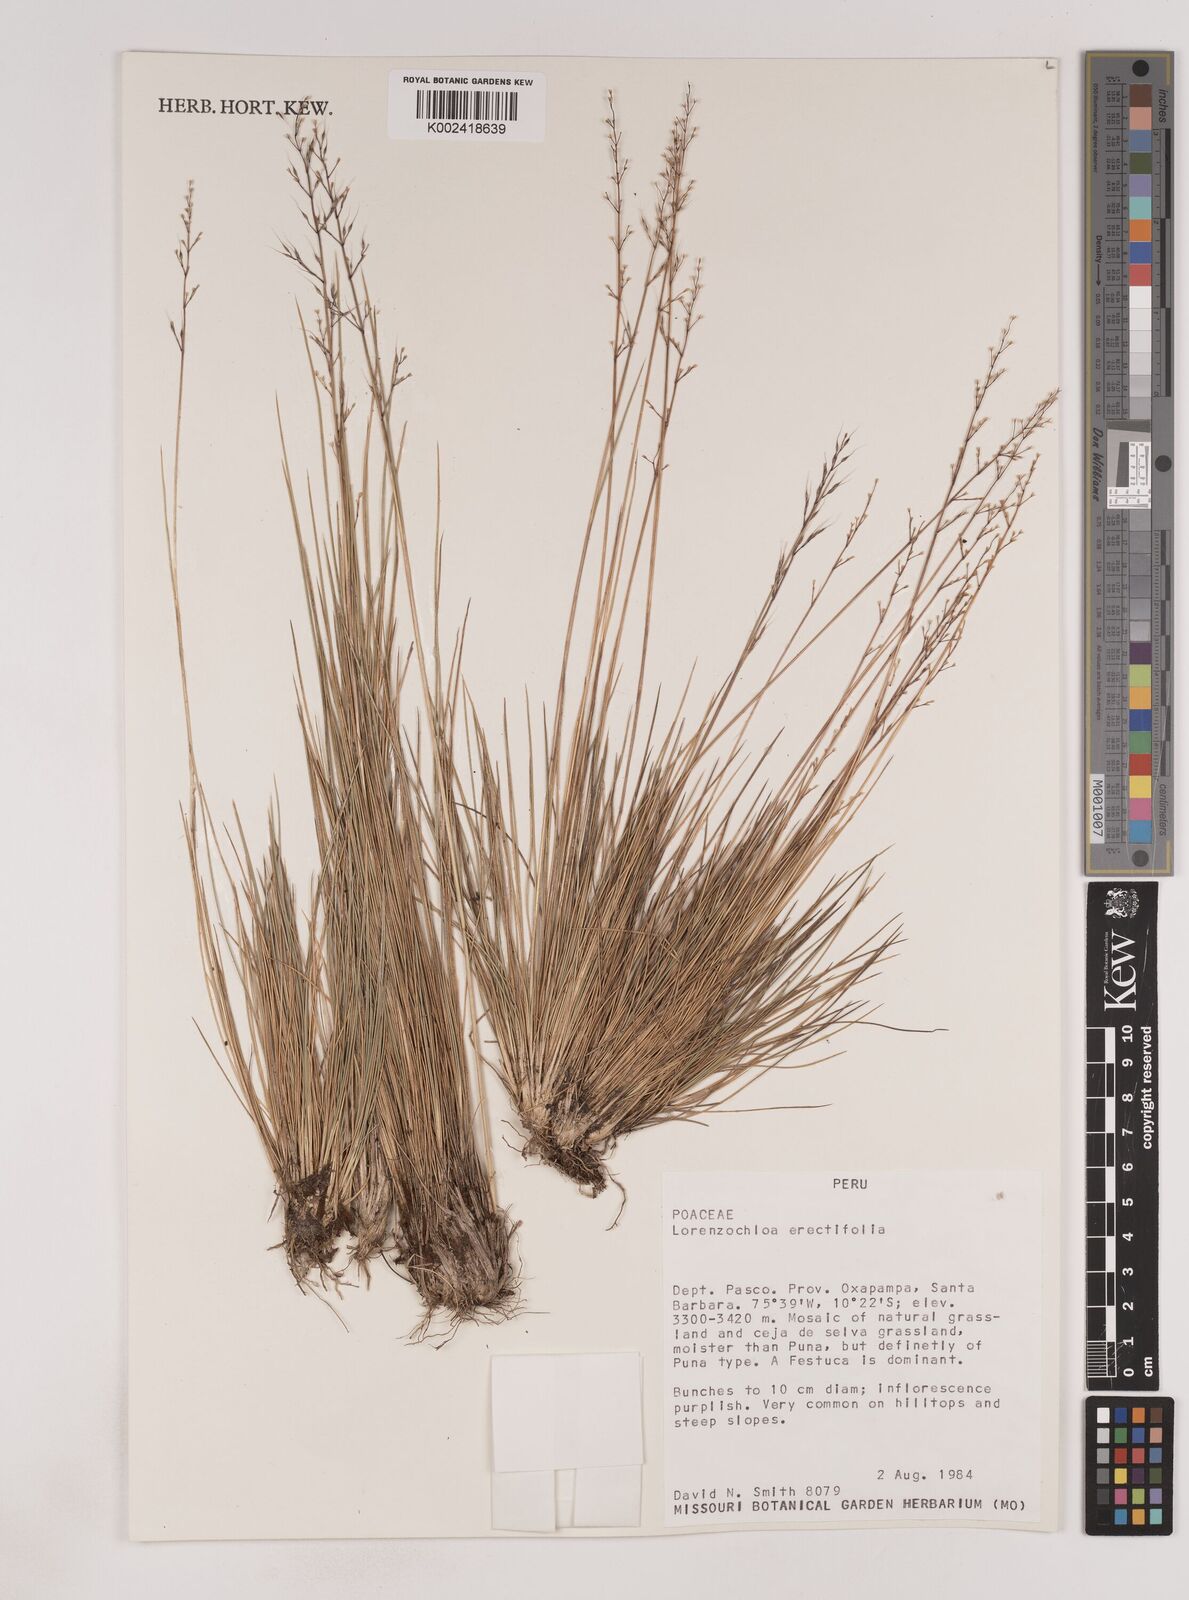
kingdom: Plantae
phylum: Tracheophyta
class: Liliopsida
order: Poales
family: Poaceae
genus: Lorenzochloa
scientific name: Lorenzochloa erectifolia
